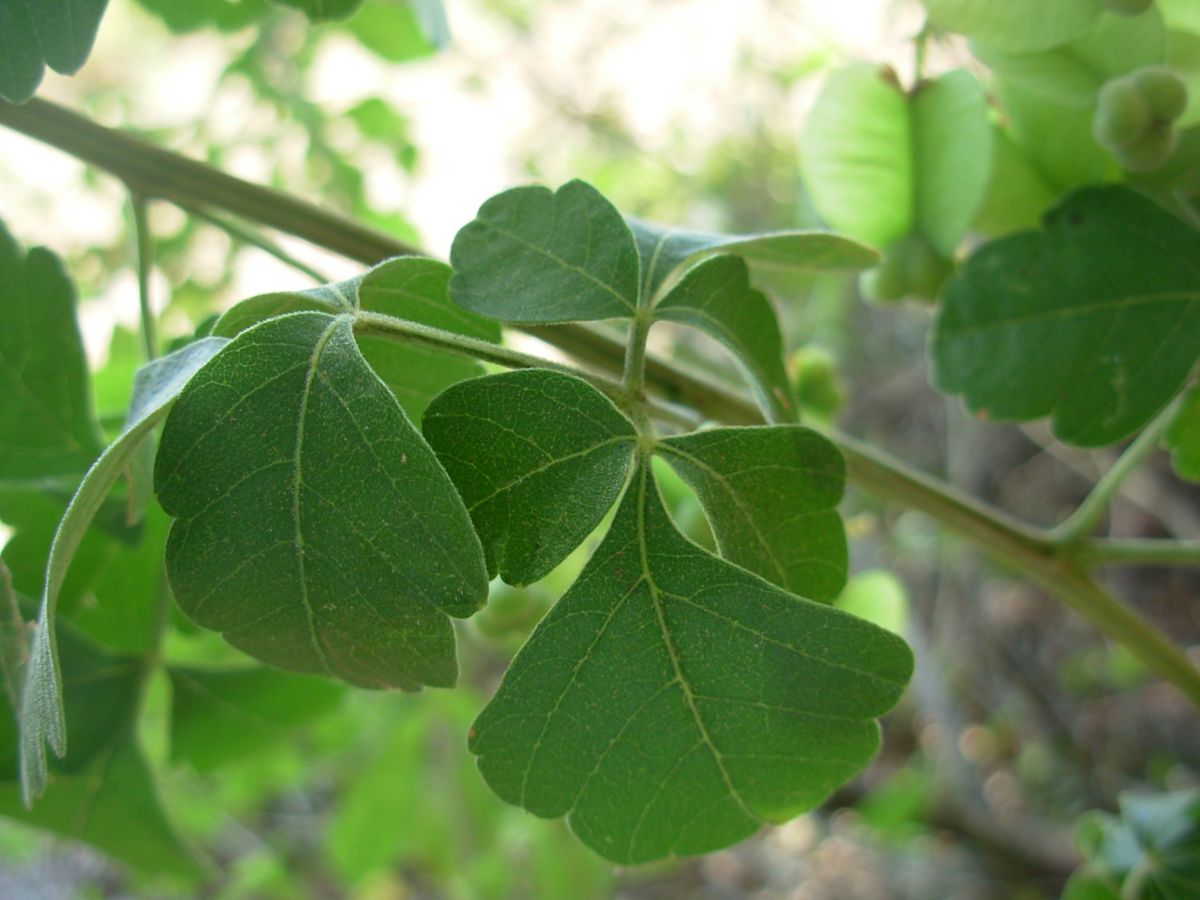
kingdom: Plantae
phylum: Tracheophyta
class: Magnoliopsida
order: Sapindales
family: Sapindaceae
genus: Serjania
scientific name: Serjania triquetra
